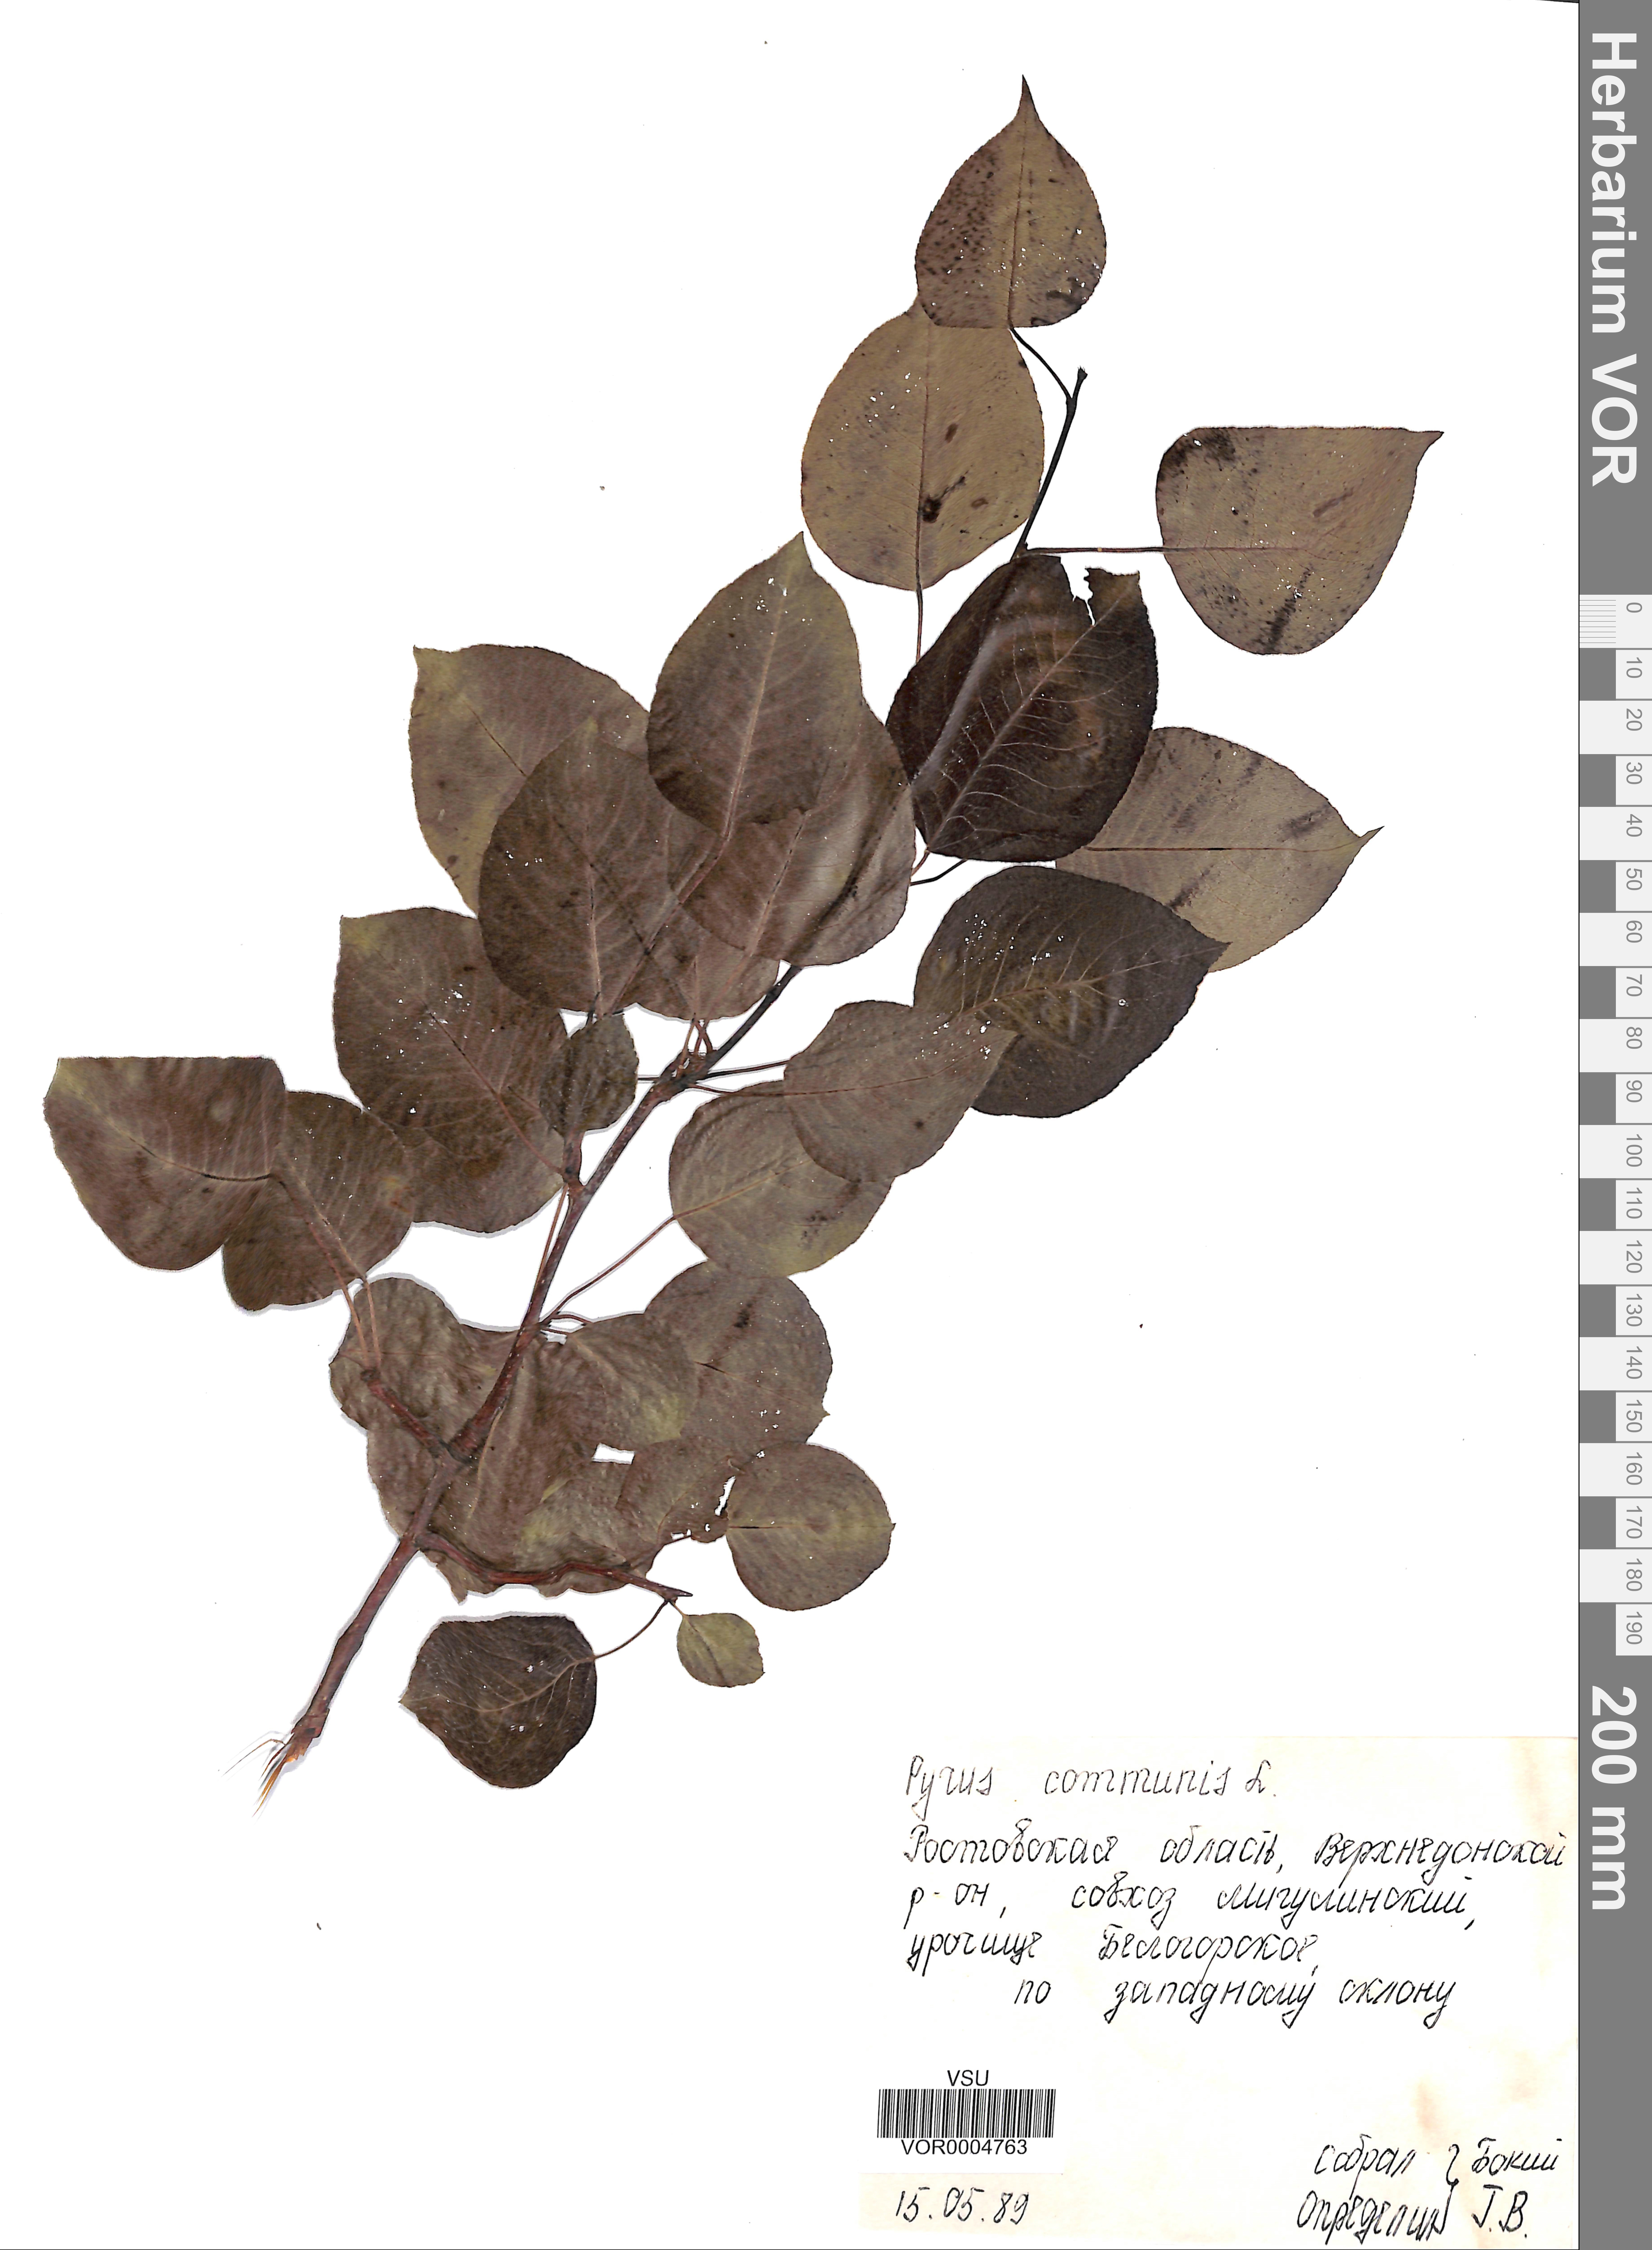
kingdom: Plantae
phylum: Tracheophyta
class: Magnoliopsida
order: Rosales
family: Rosaceae
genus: Pyrus
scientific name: Pyrus communis
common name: Pear
